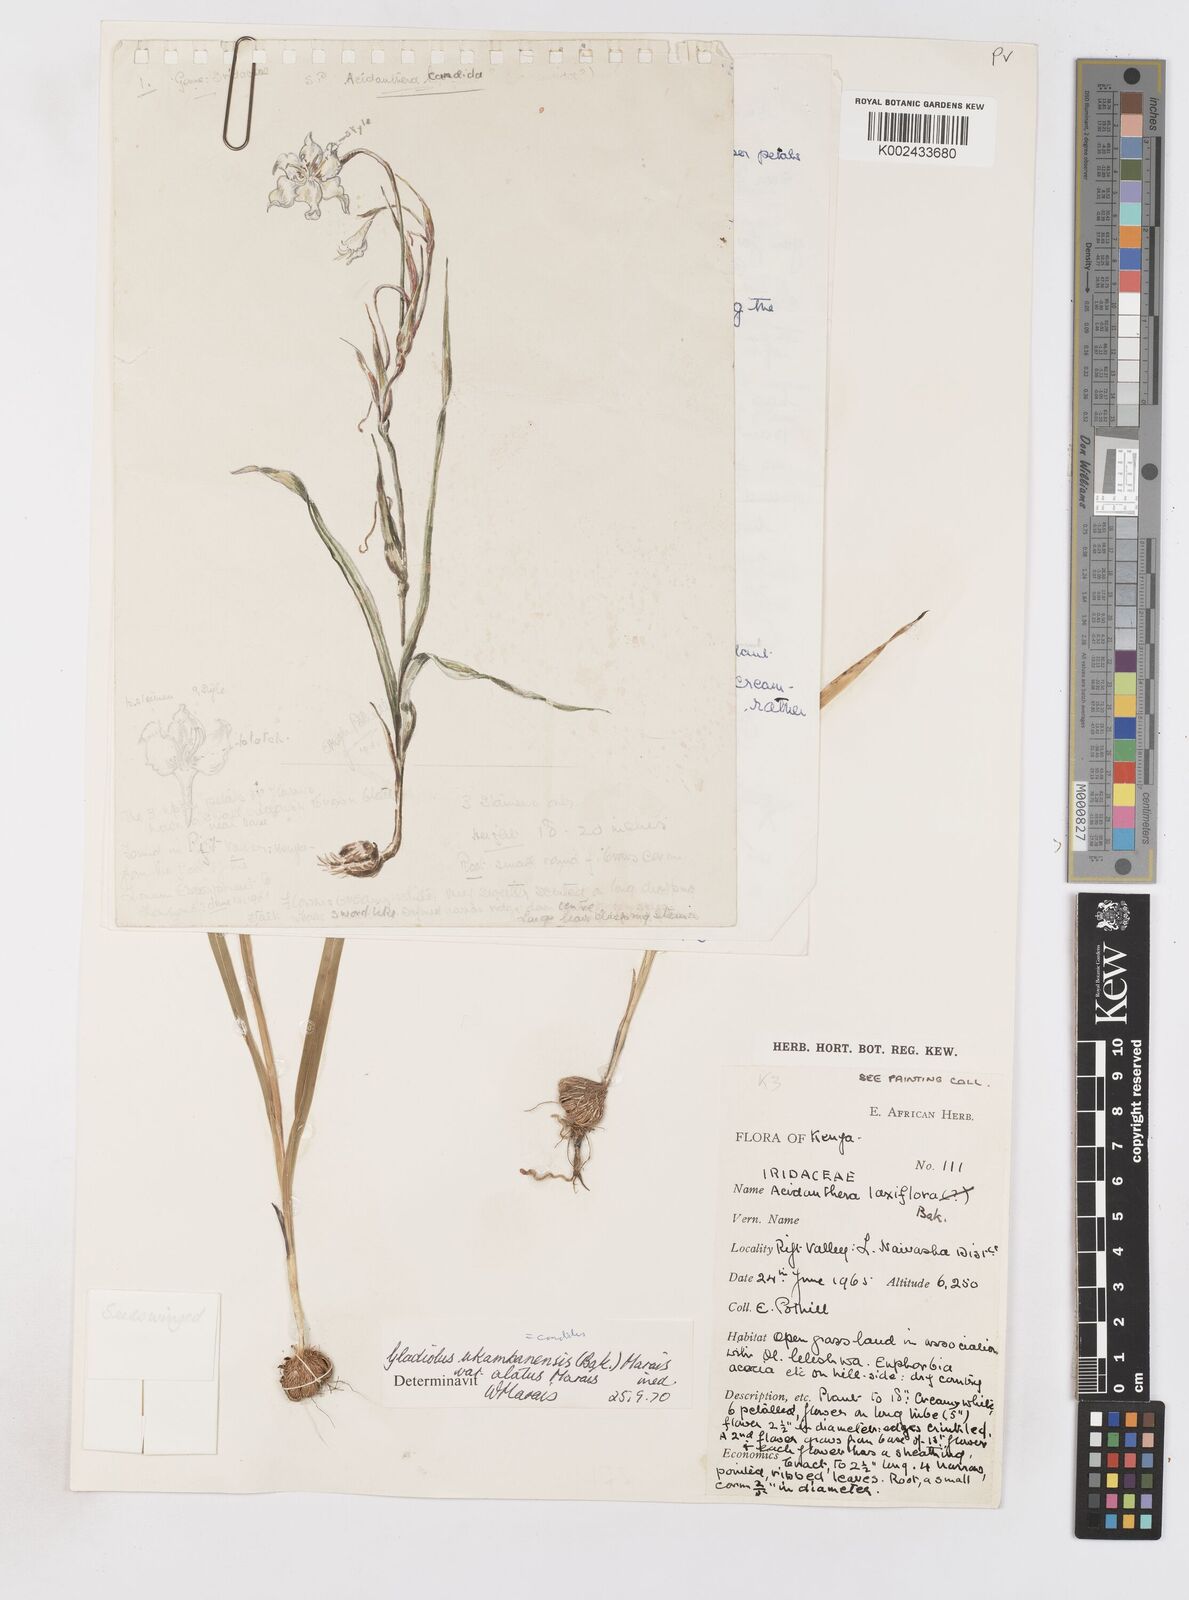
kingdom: Plantae
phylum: Tracheophyta
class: Liliopsida
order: Asparagales
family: Iridaceae
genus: Gladiolus
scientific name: Gladiolus candidus
